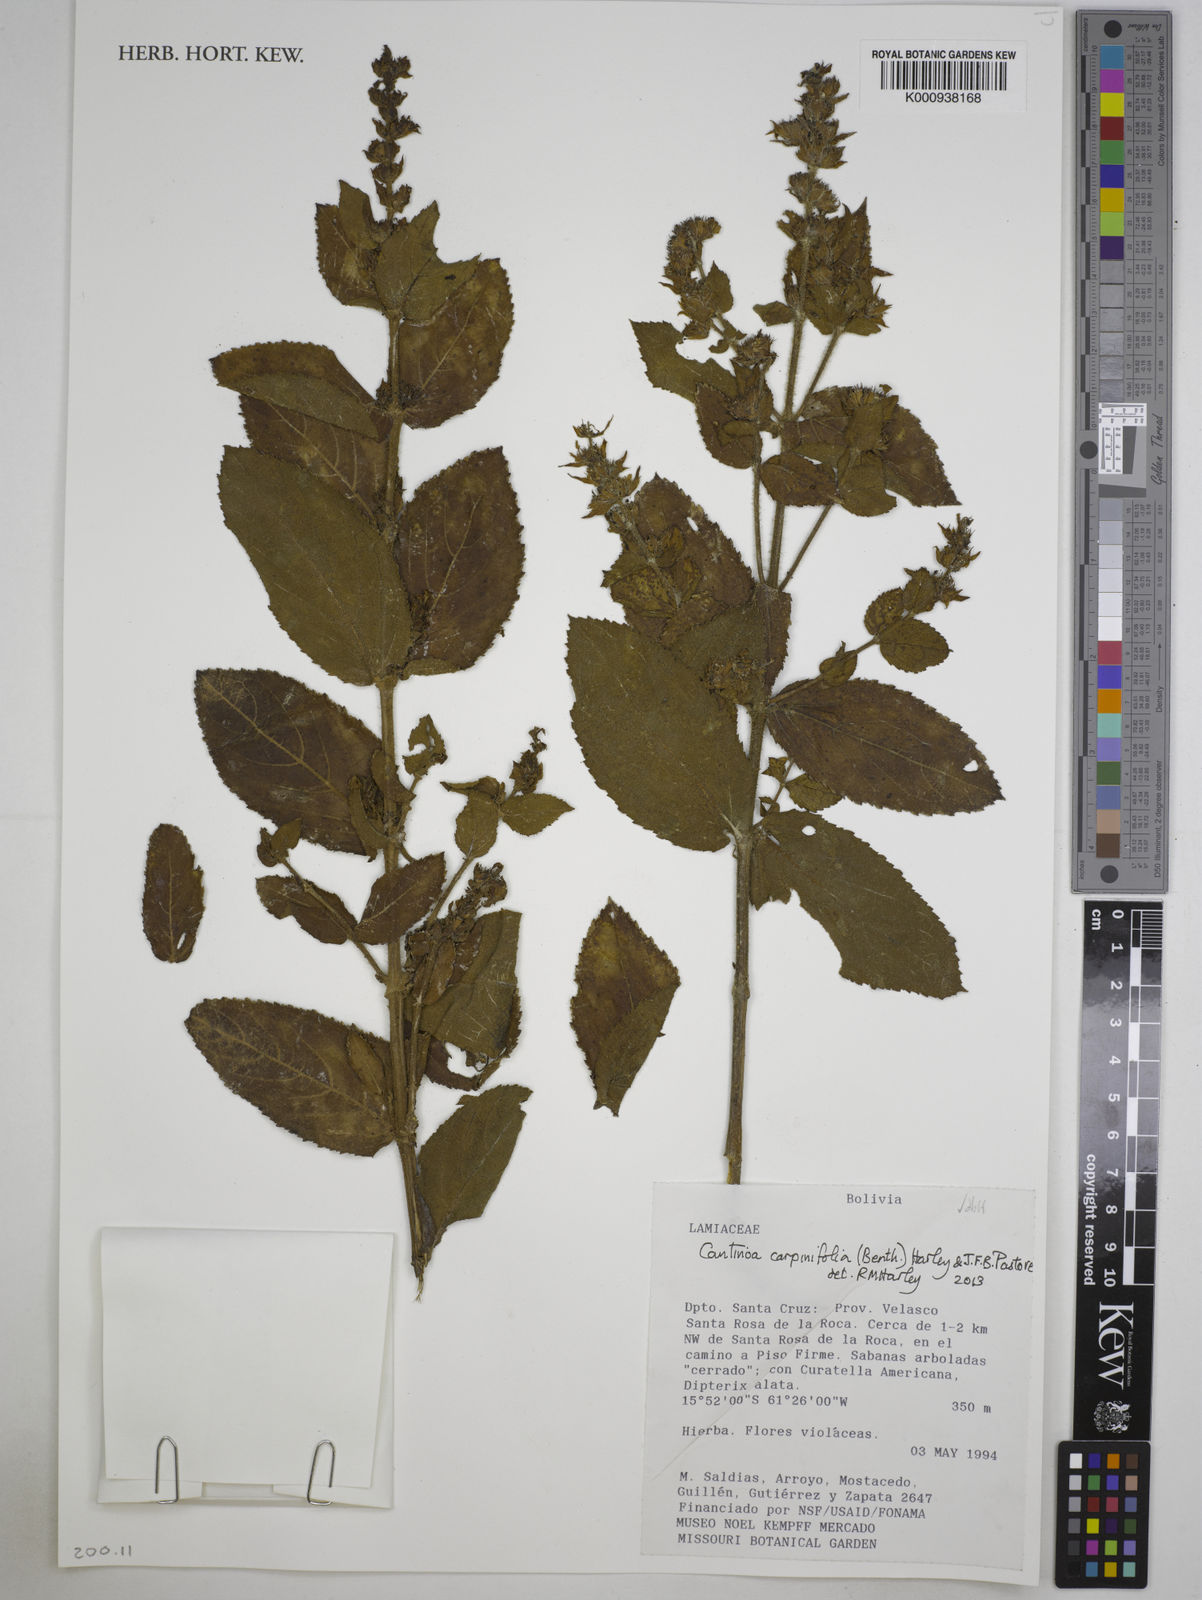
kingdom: Plantae
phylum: Tracheophyta
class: Magnoliopsida
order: Lamiales
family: Lamiaceae
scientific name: Lamiaceae
